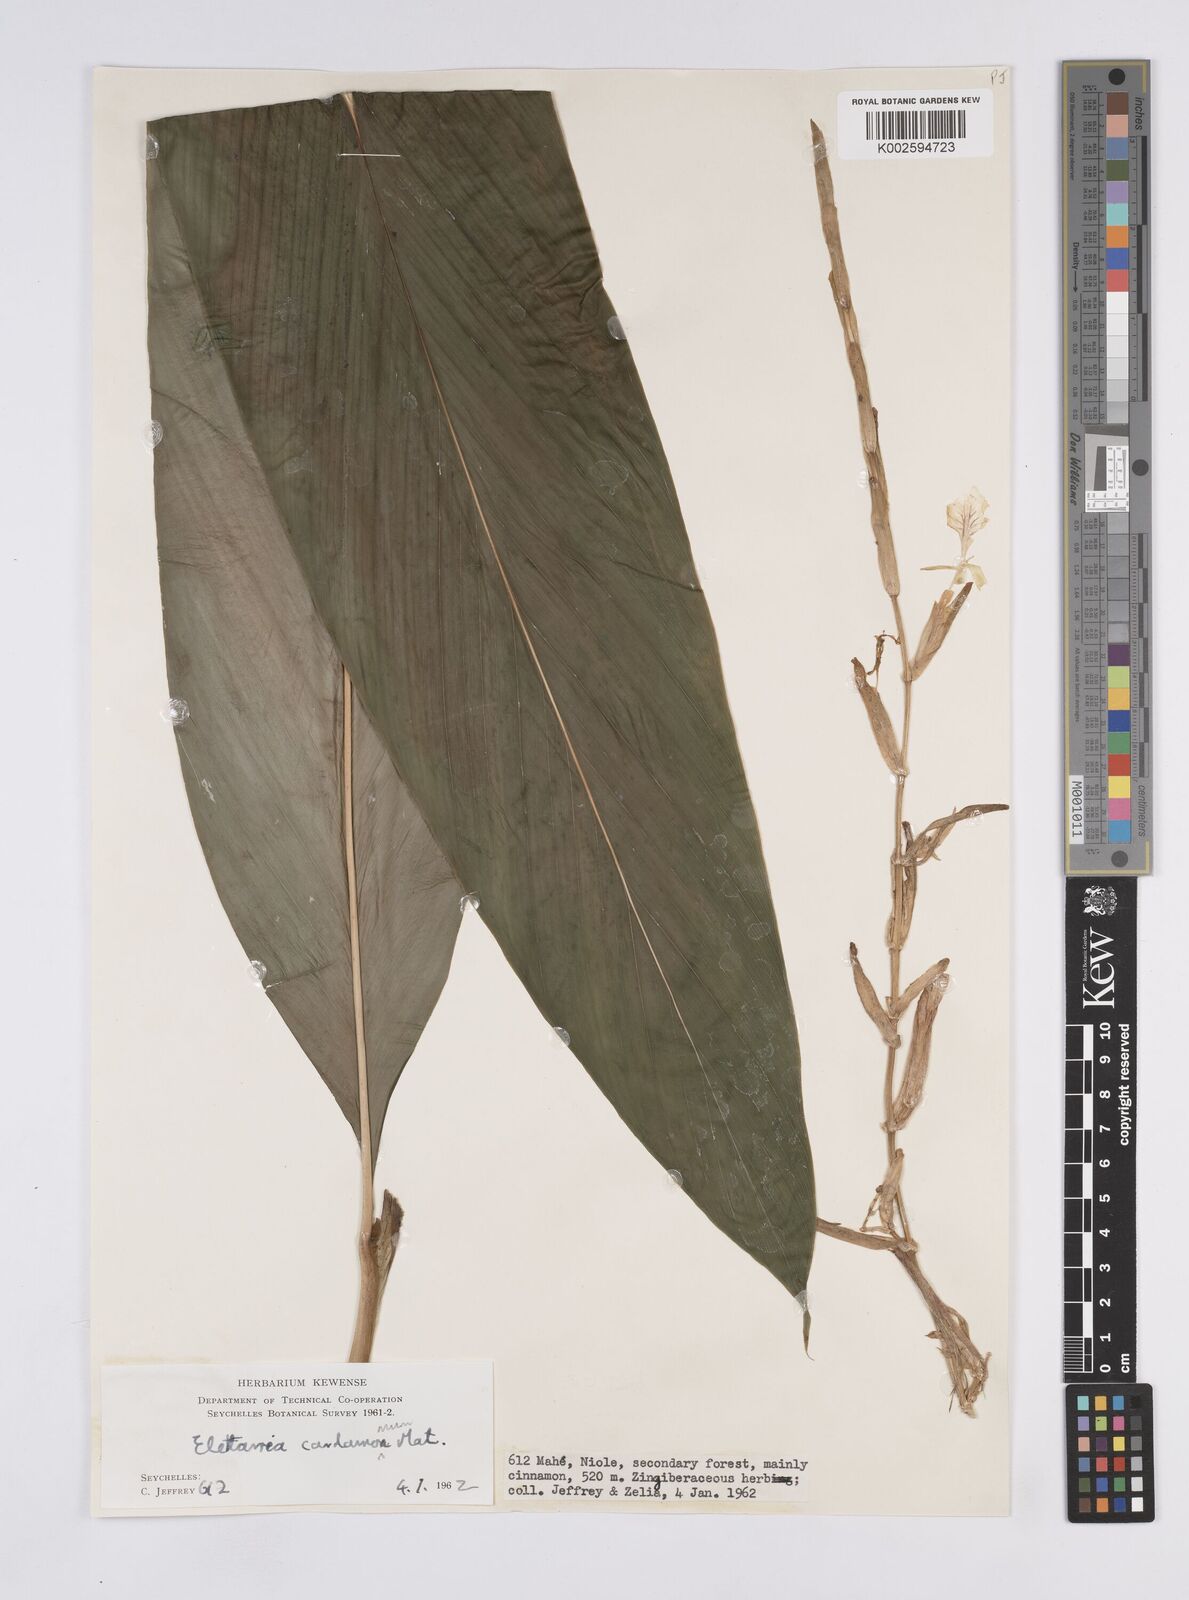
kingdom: Plantae
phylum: Tracheophyta
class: Liliopsida
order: Zingiberales
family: Zingiberaceae
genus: Elettaria
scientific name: Elettaria cardamomum
